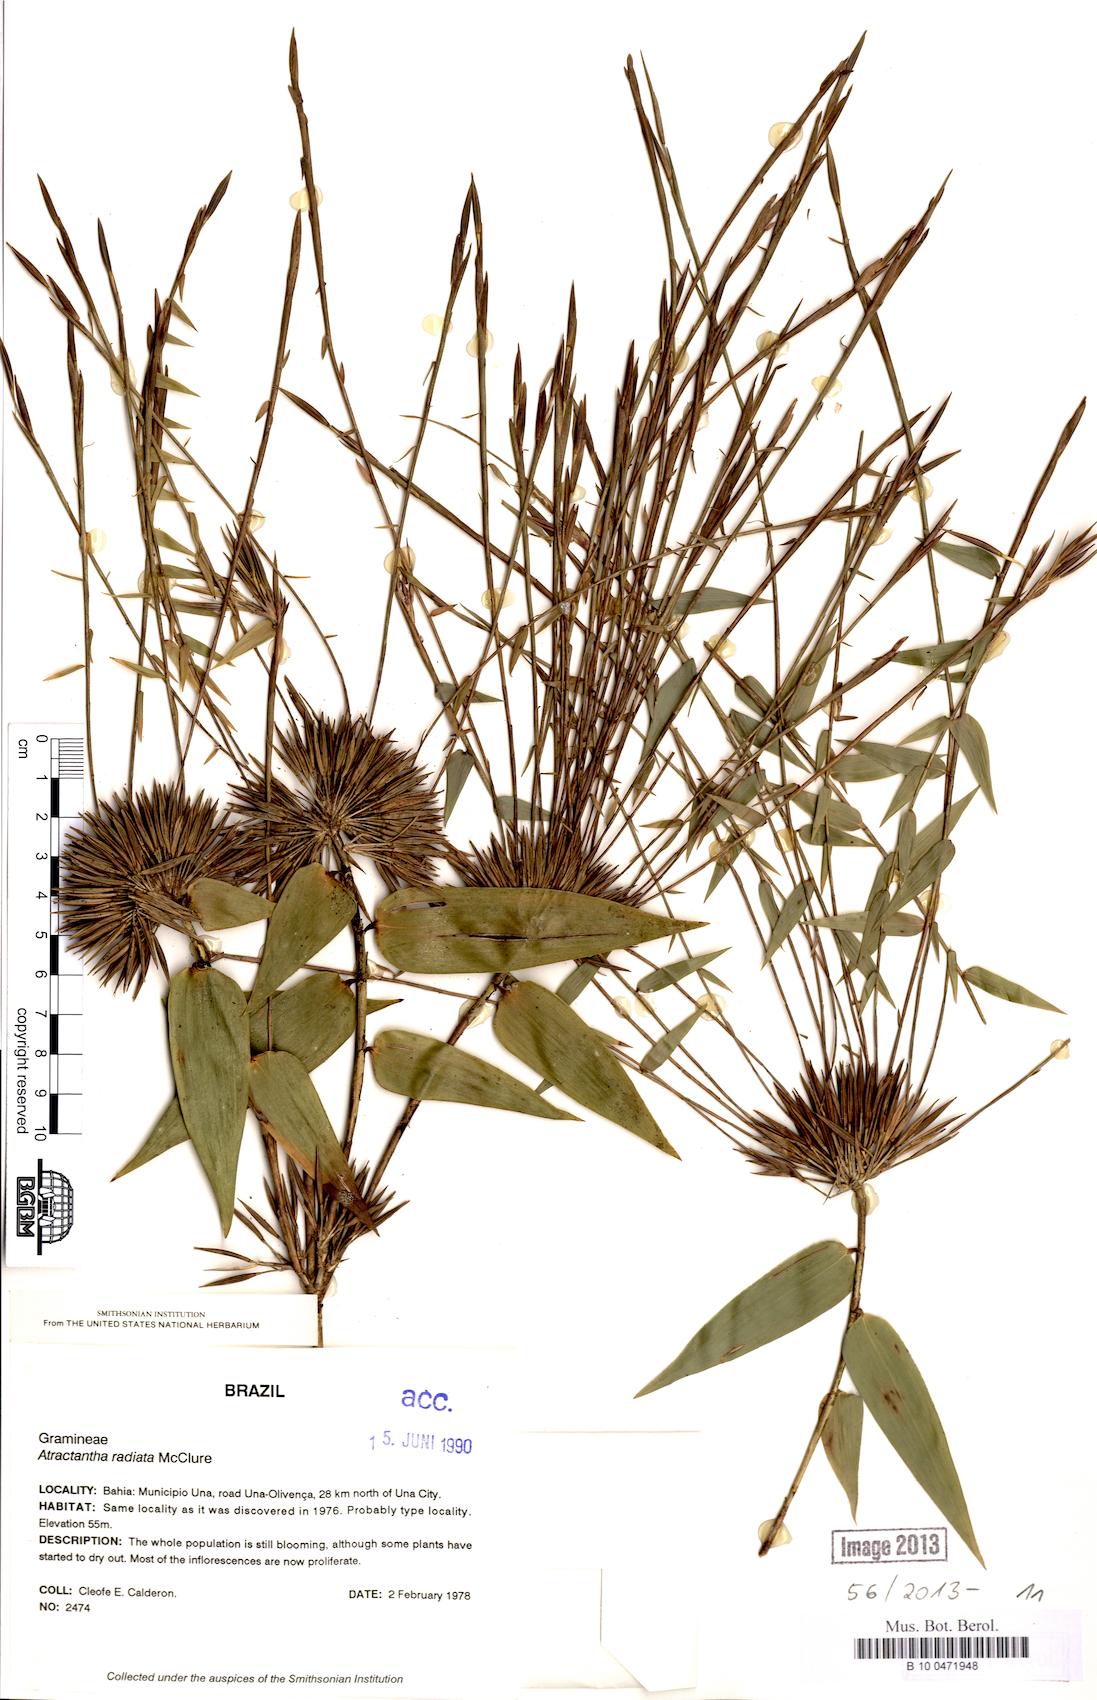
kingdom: Plantae
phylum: Tracheophyta
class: Liliopsida
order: Poales
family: Poaceae
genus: Atractantha
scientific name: Atractantha radiata
